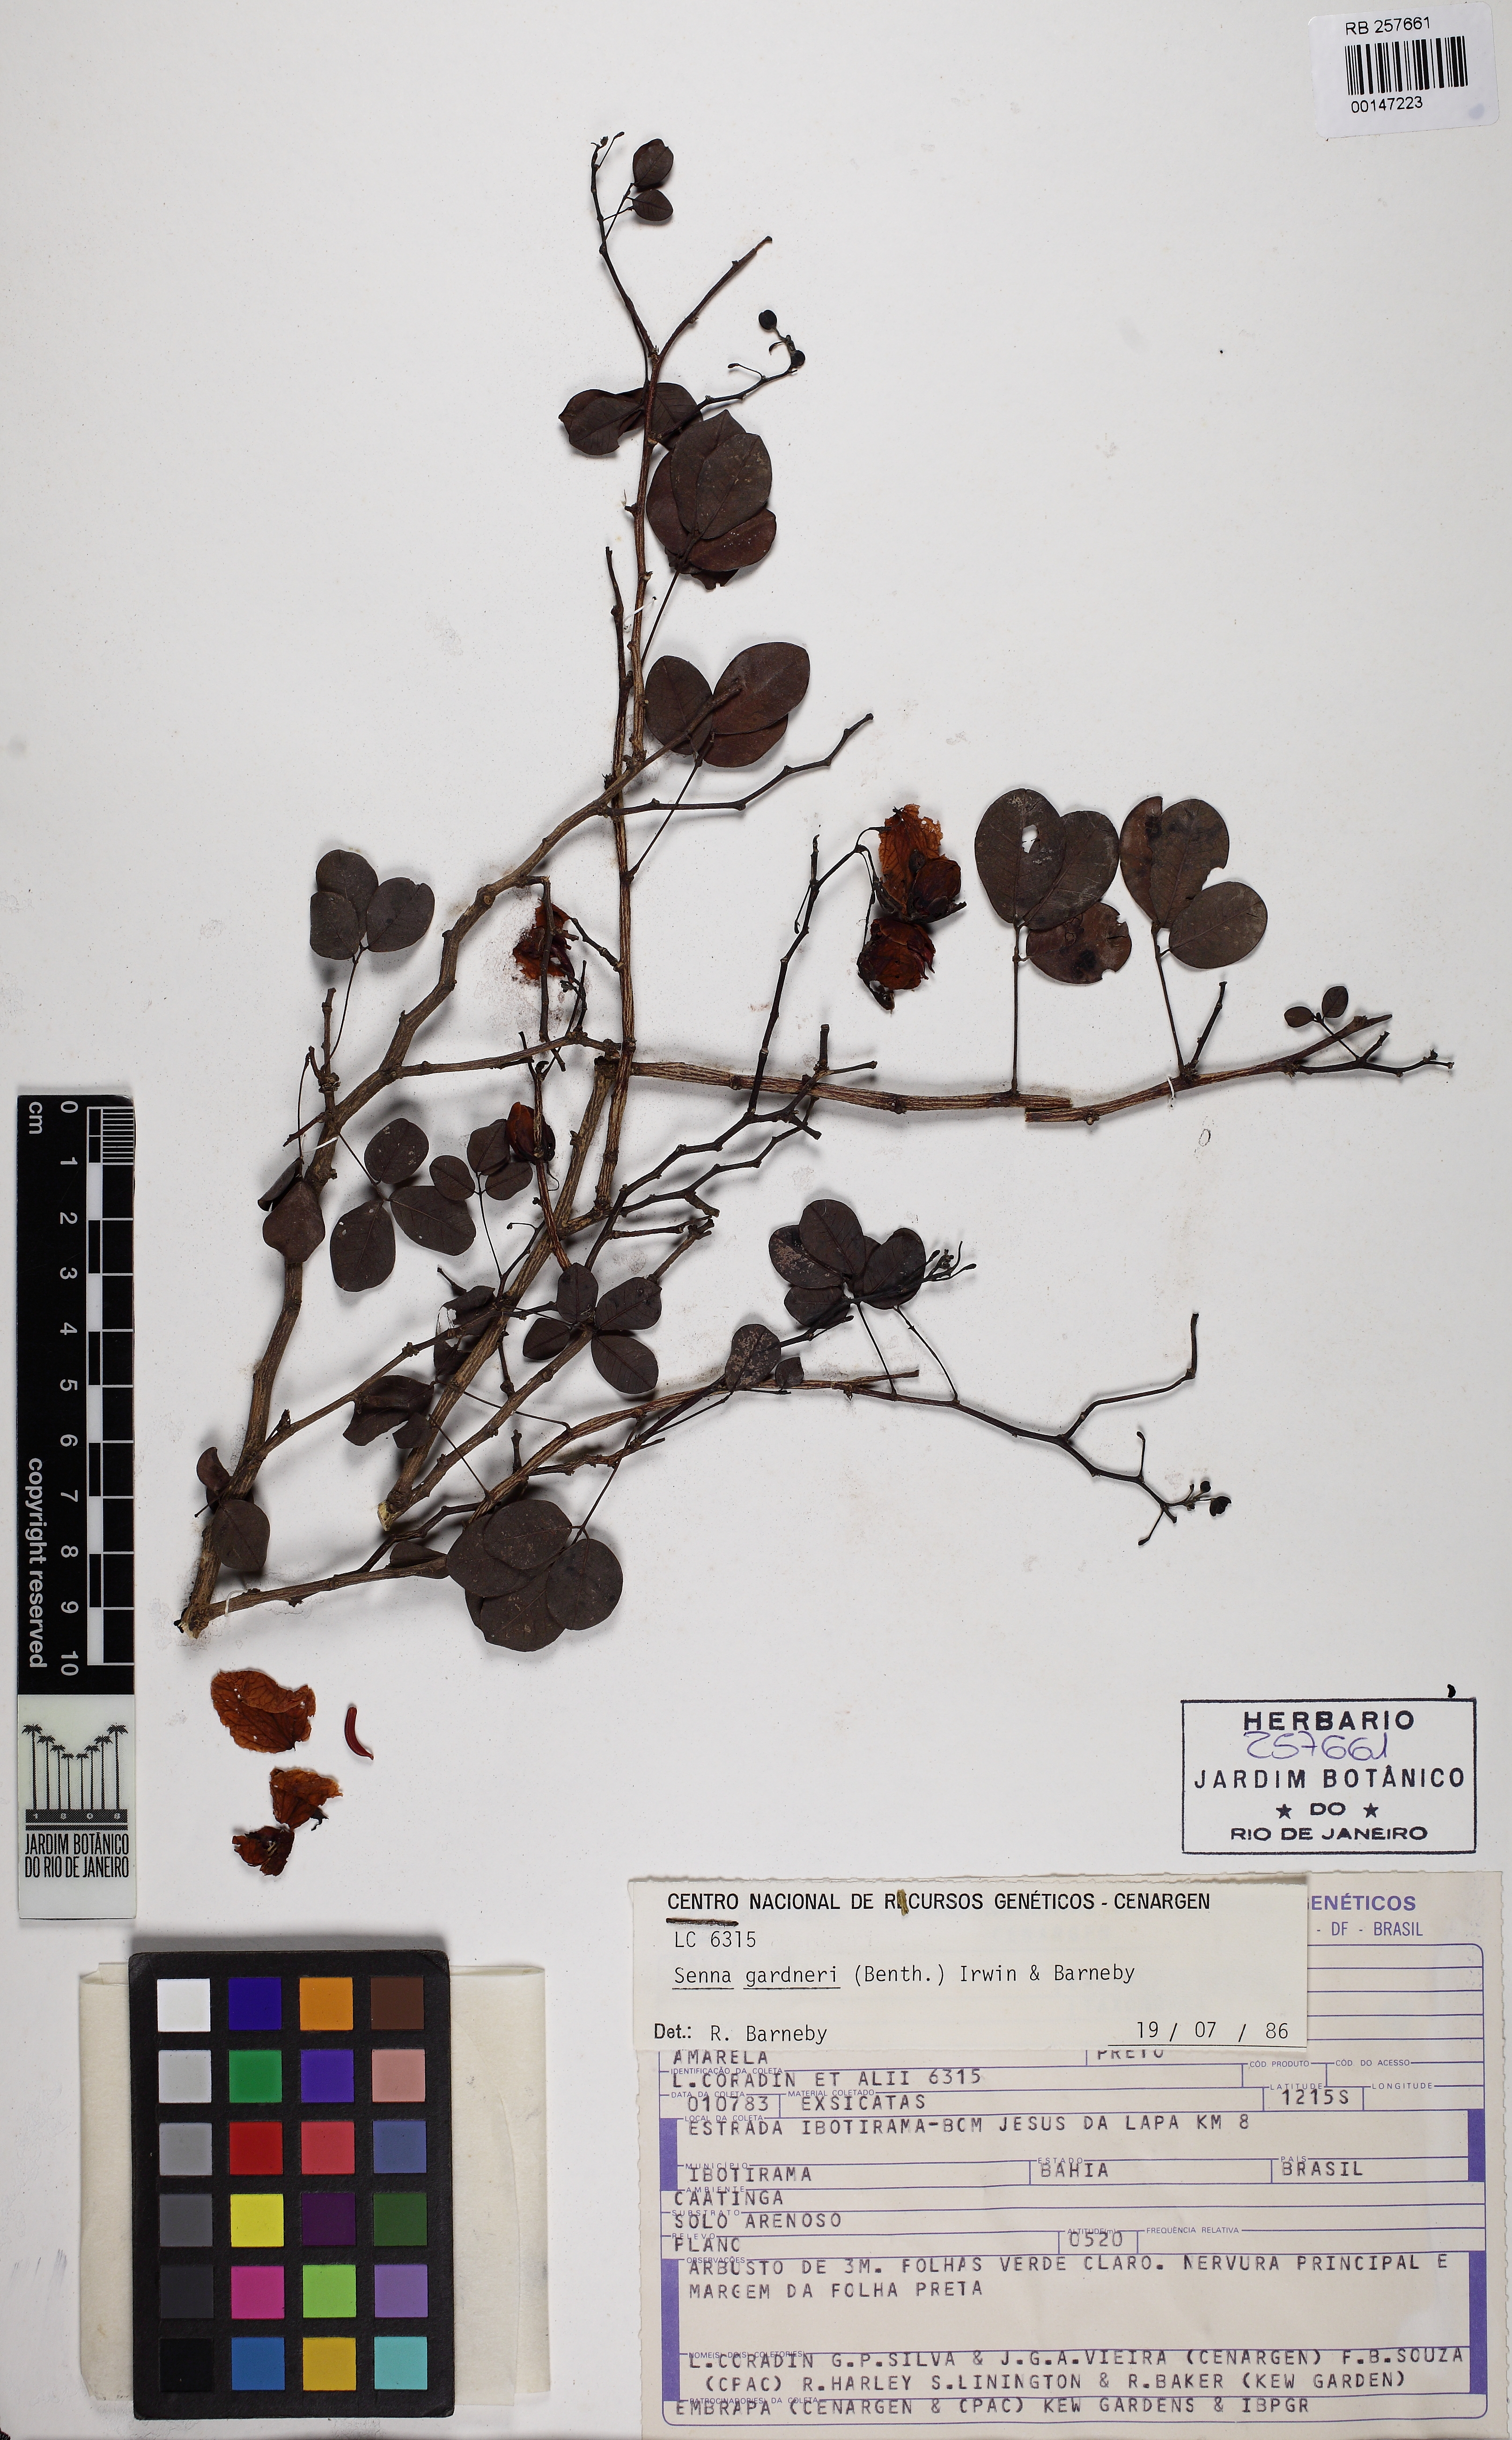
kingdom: Plantae
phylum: Tracheophyta
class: Magnoliopsida
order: Fabales
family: Fabaceae
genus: Senna
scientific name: Senna gardneri
